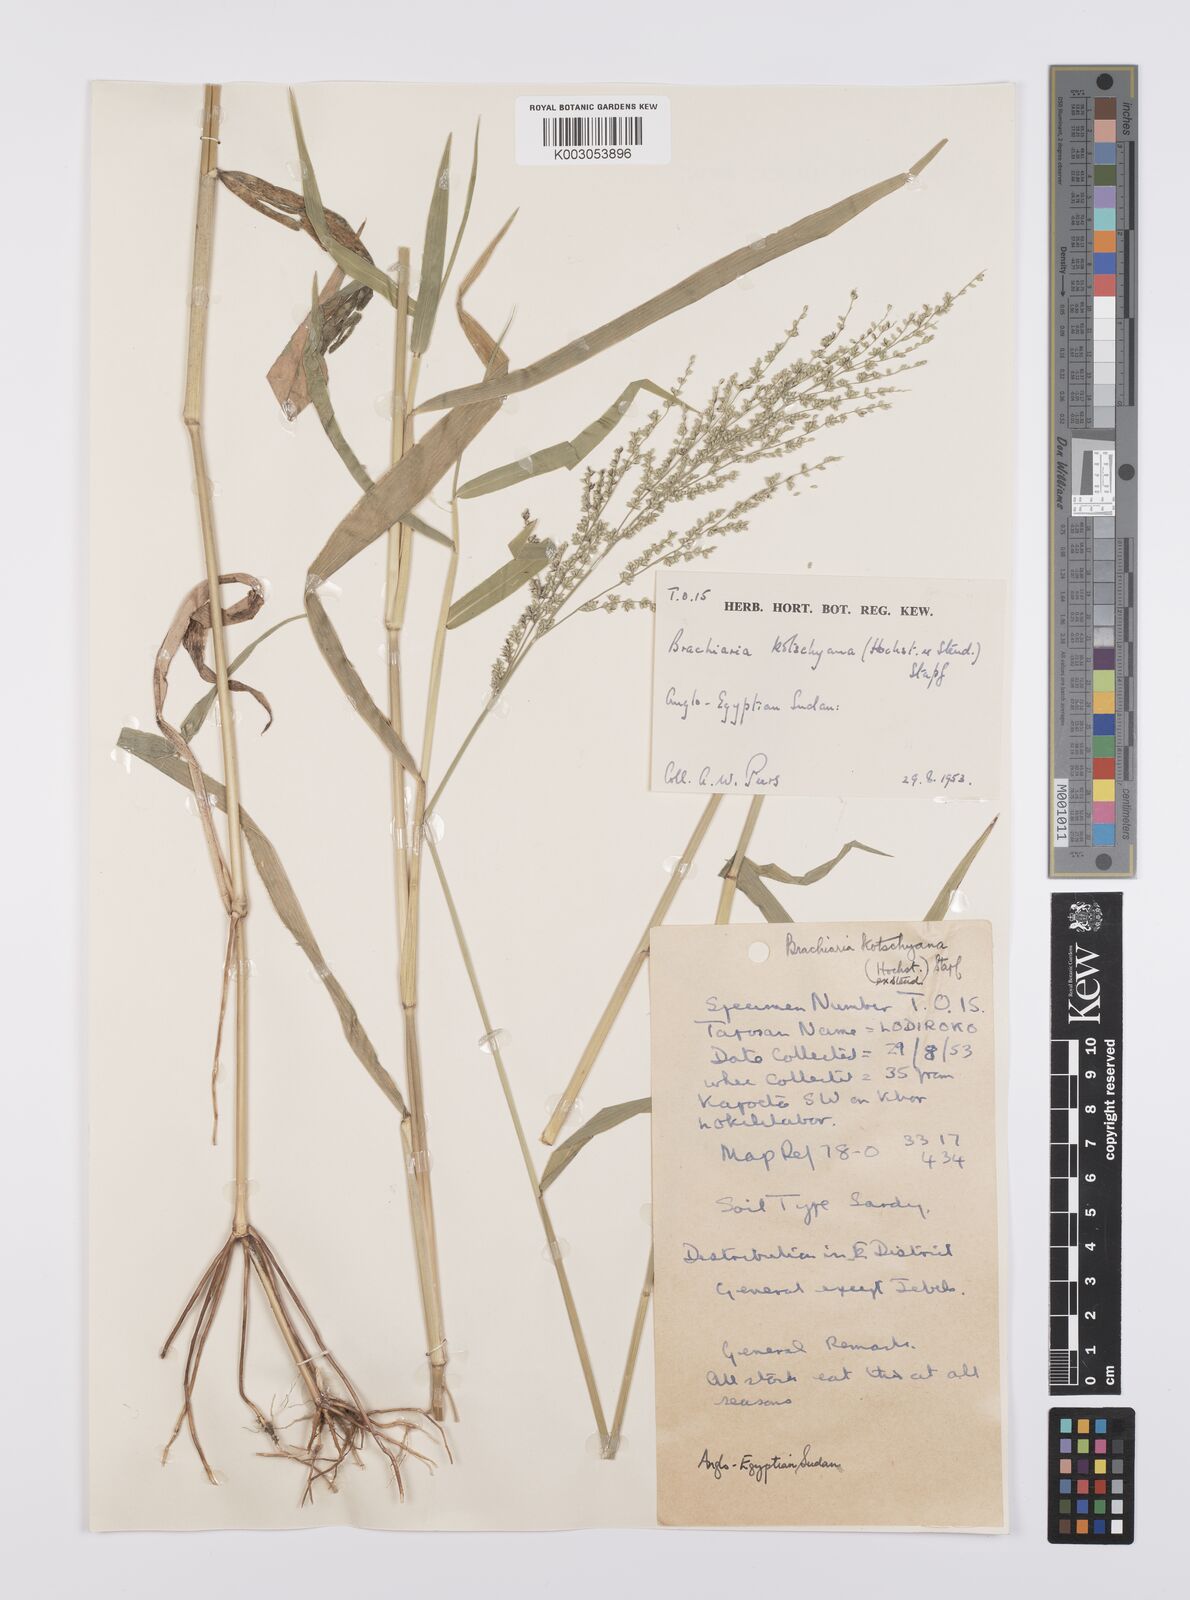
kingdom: Plantae
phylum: Tracheophyta
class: Liliopsida
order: Poales
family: Poaceae
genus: Urochloa
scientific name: Urochloa comata
